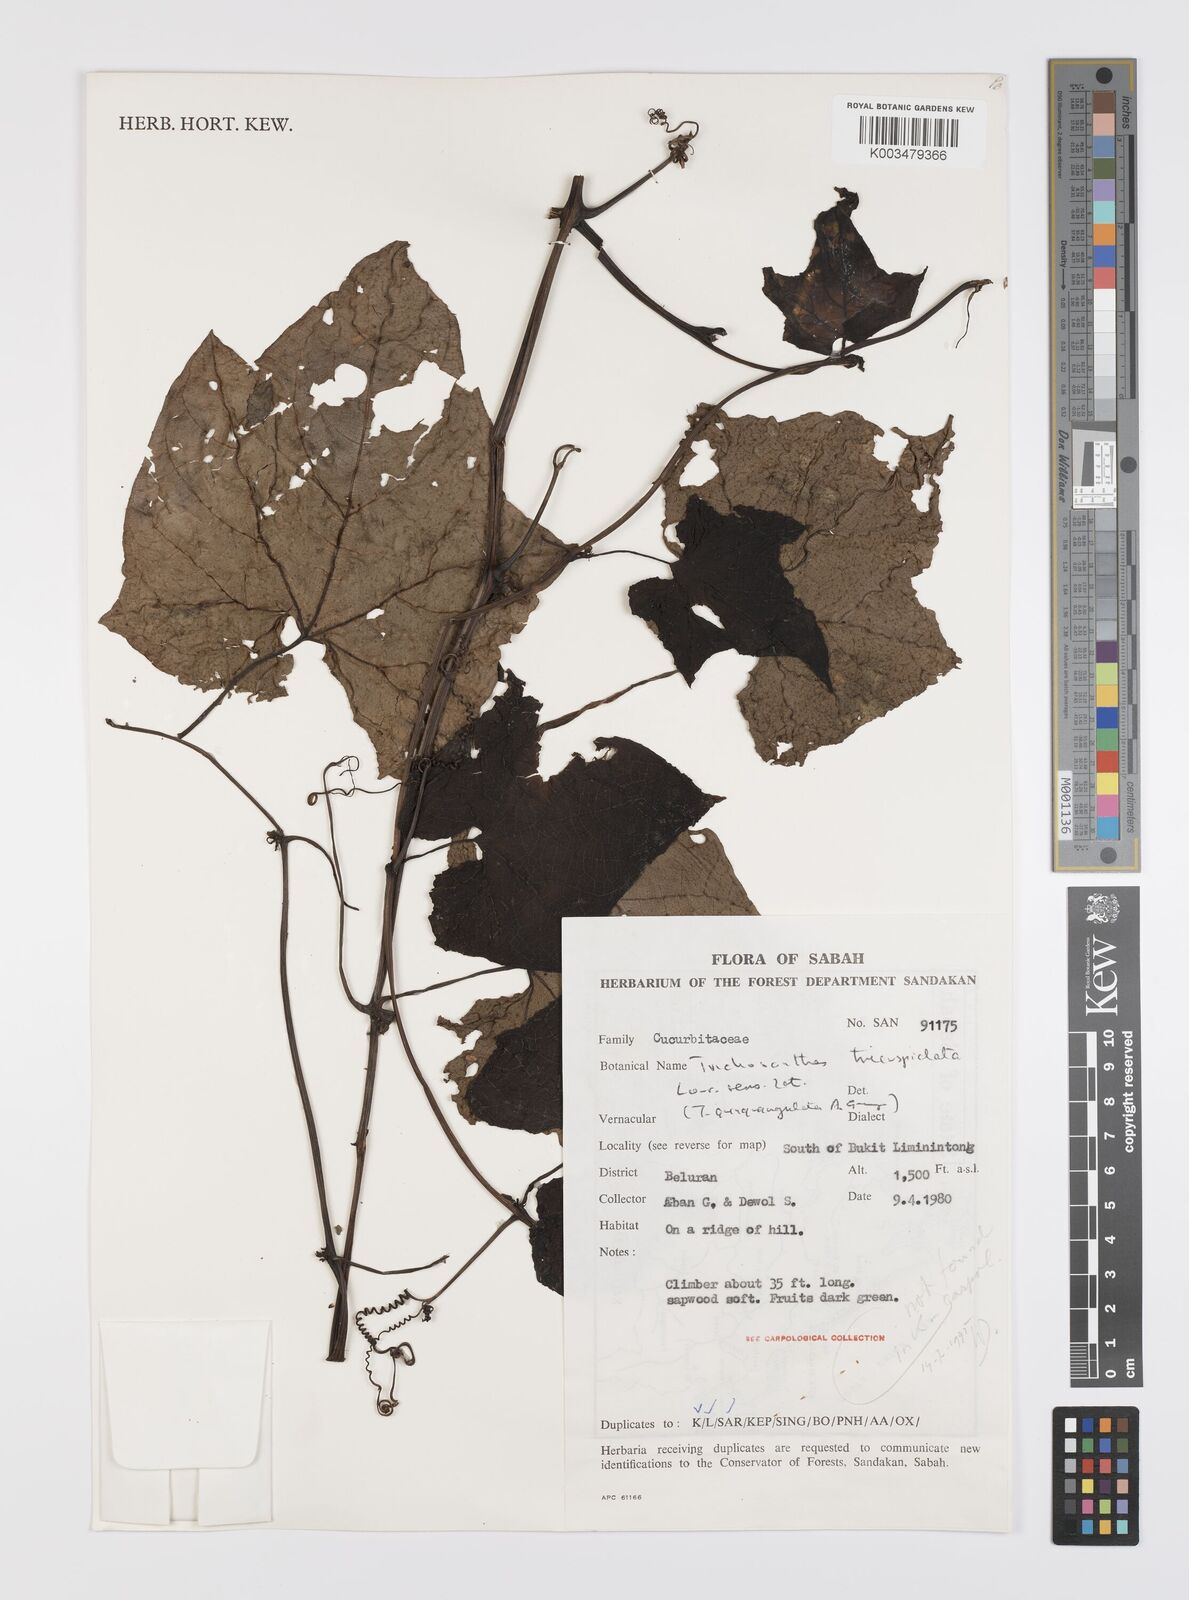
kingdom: Plantae
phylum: Tracheophyta
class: Magnoliopsida
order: Cucurbitales
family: Cucurbitaceae
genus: Trichosanthes
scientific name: Trichosanthes tricuspidata
